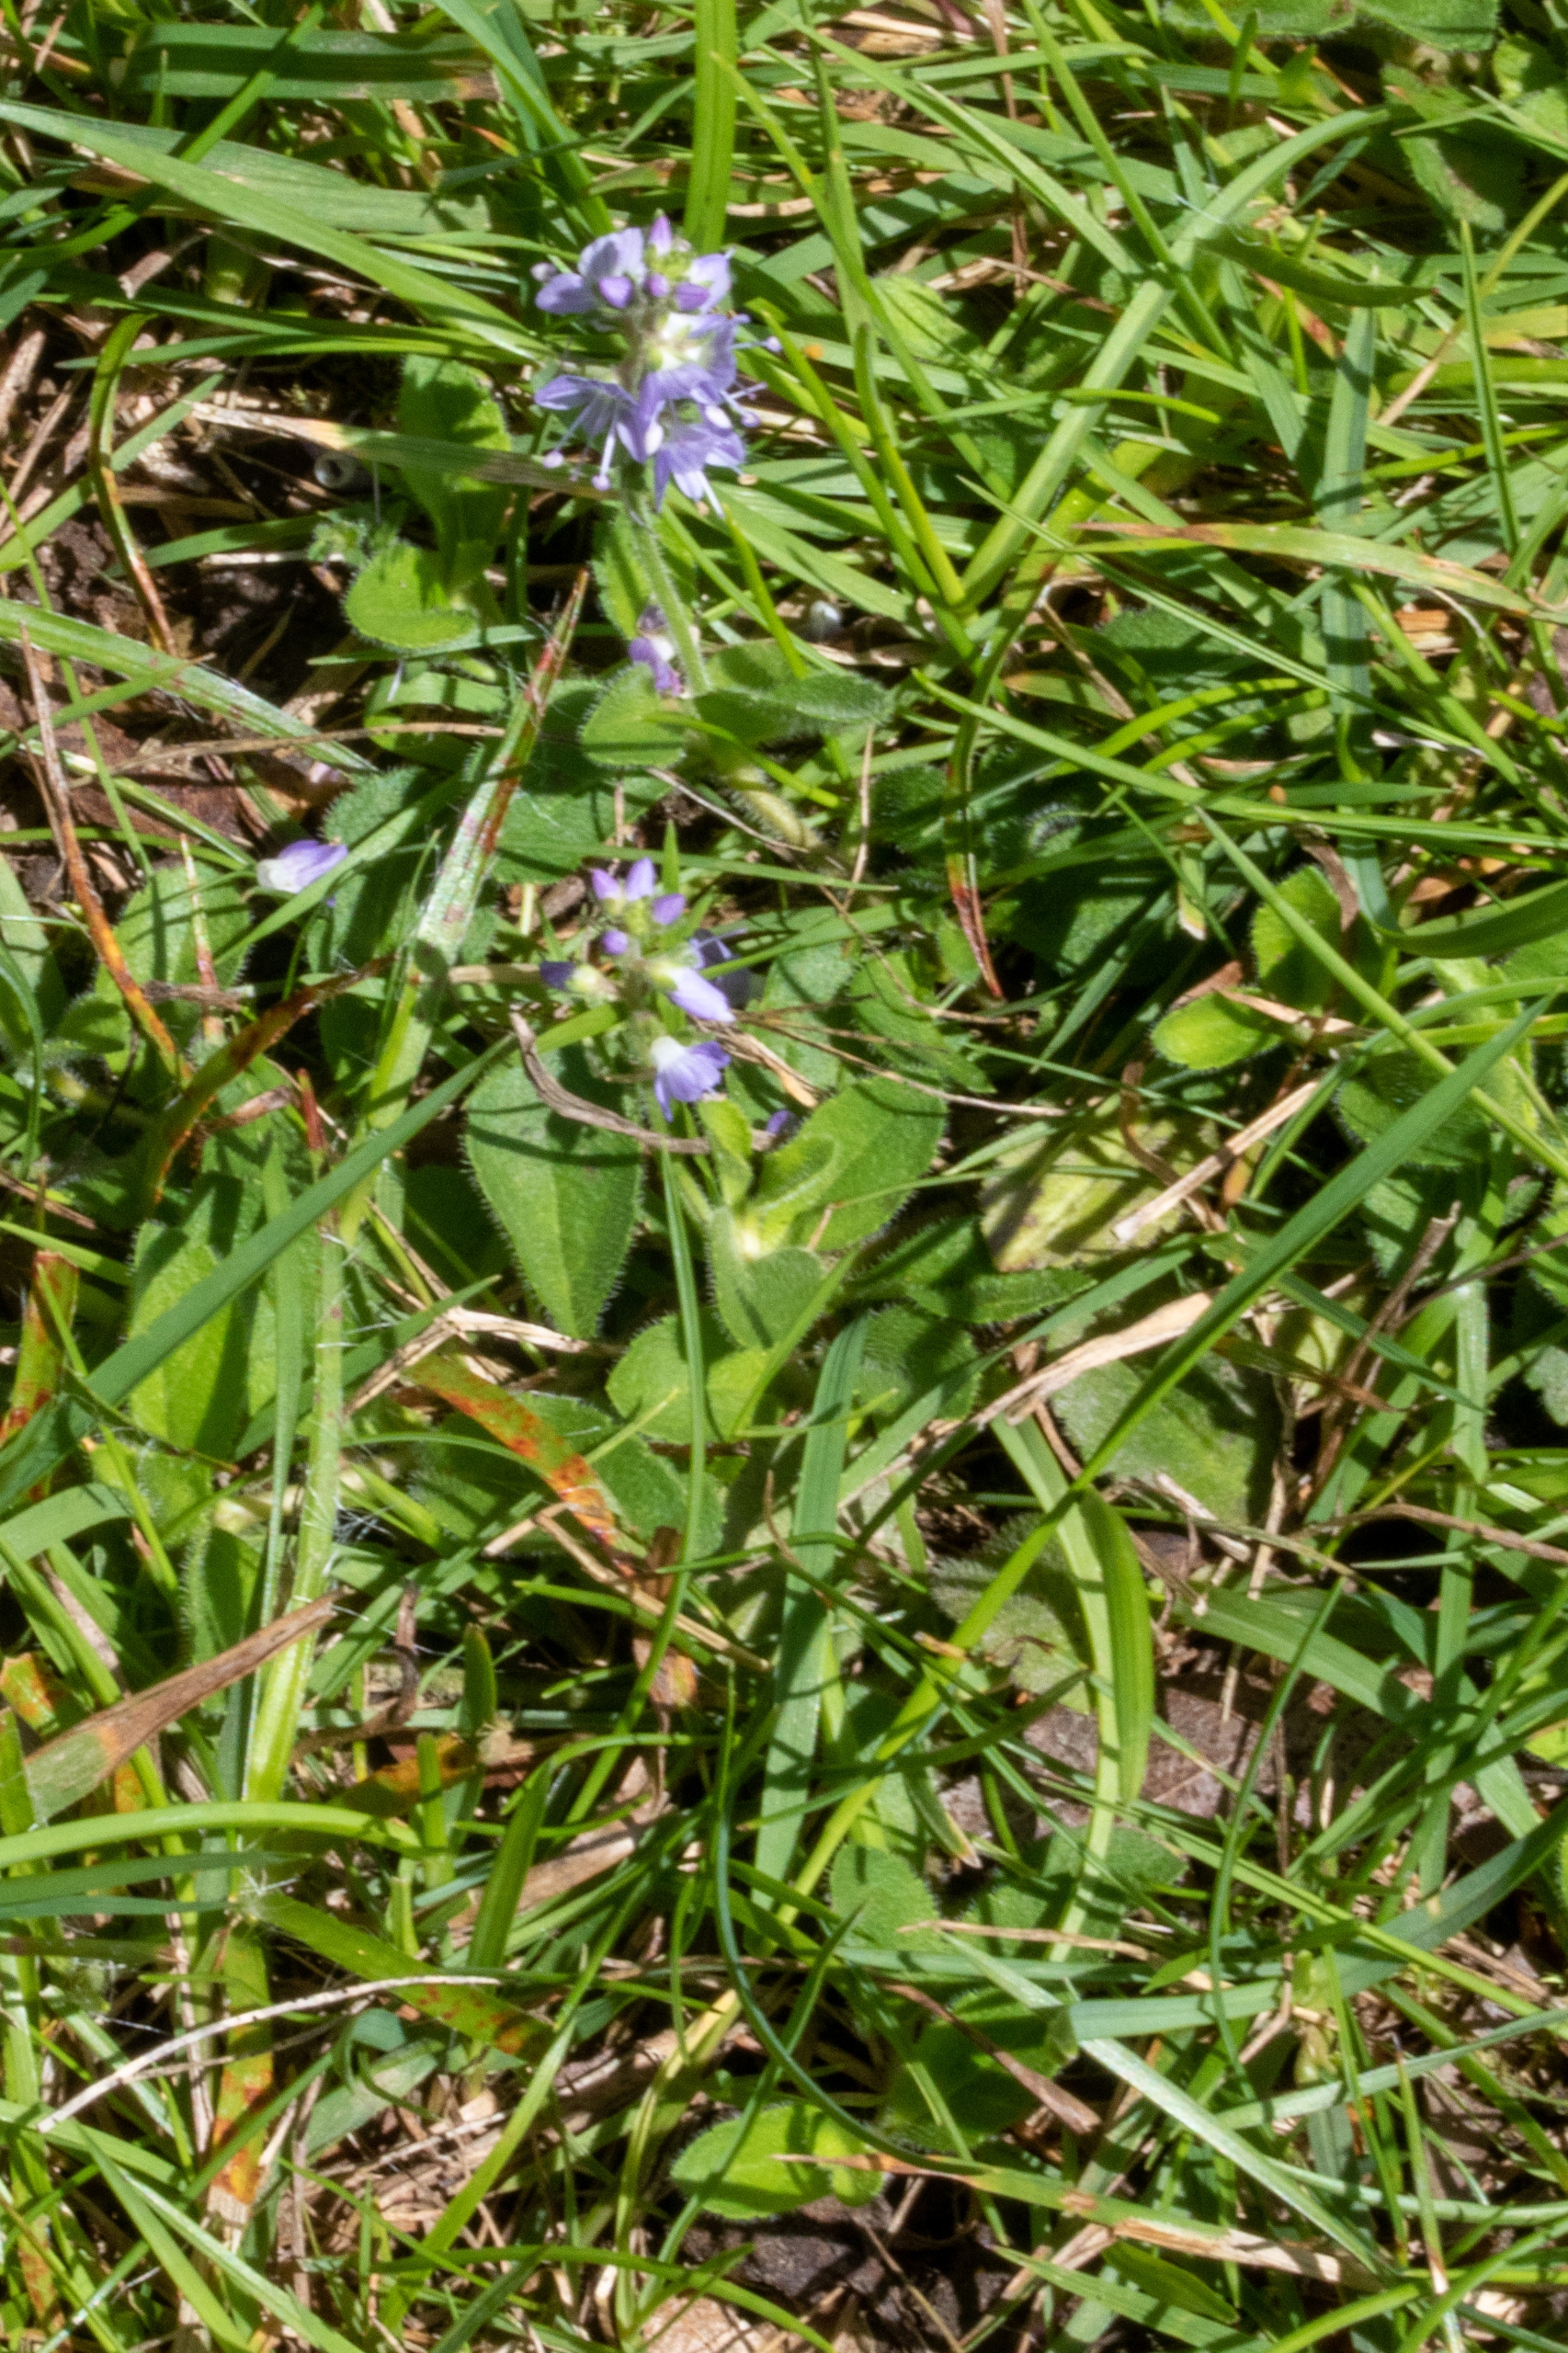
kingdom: Plantae
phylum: Tracheophyta
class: Magnoliopsida
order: Lamiales
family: Plantaginaceae
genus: Veronica
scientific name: Veronica officinalis
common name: Læge-ærenpris
